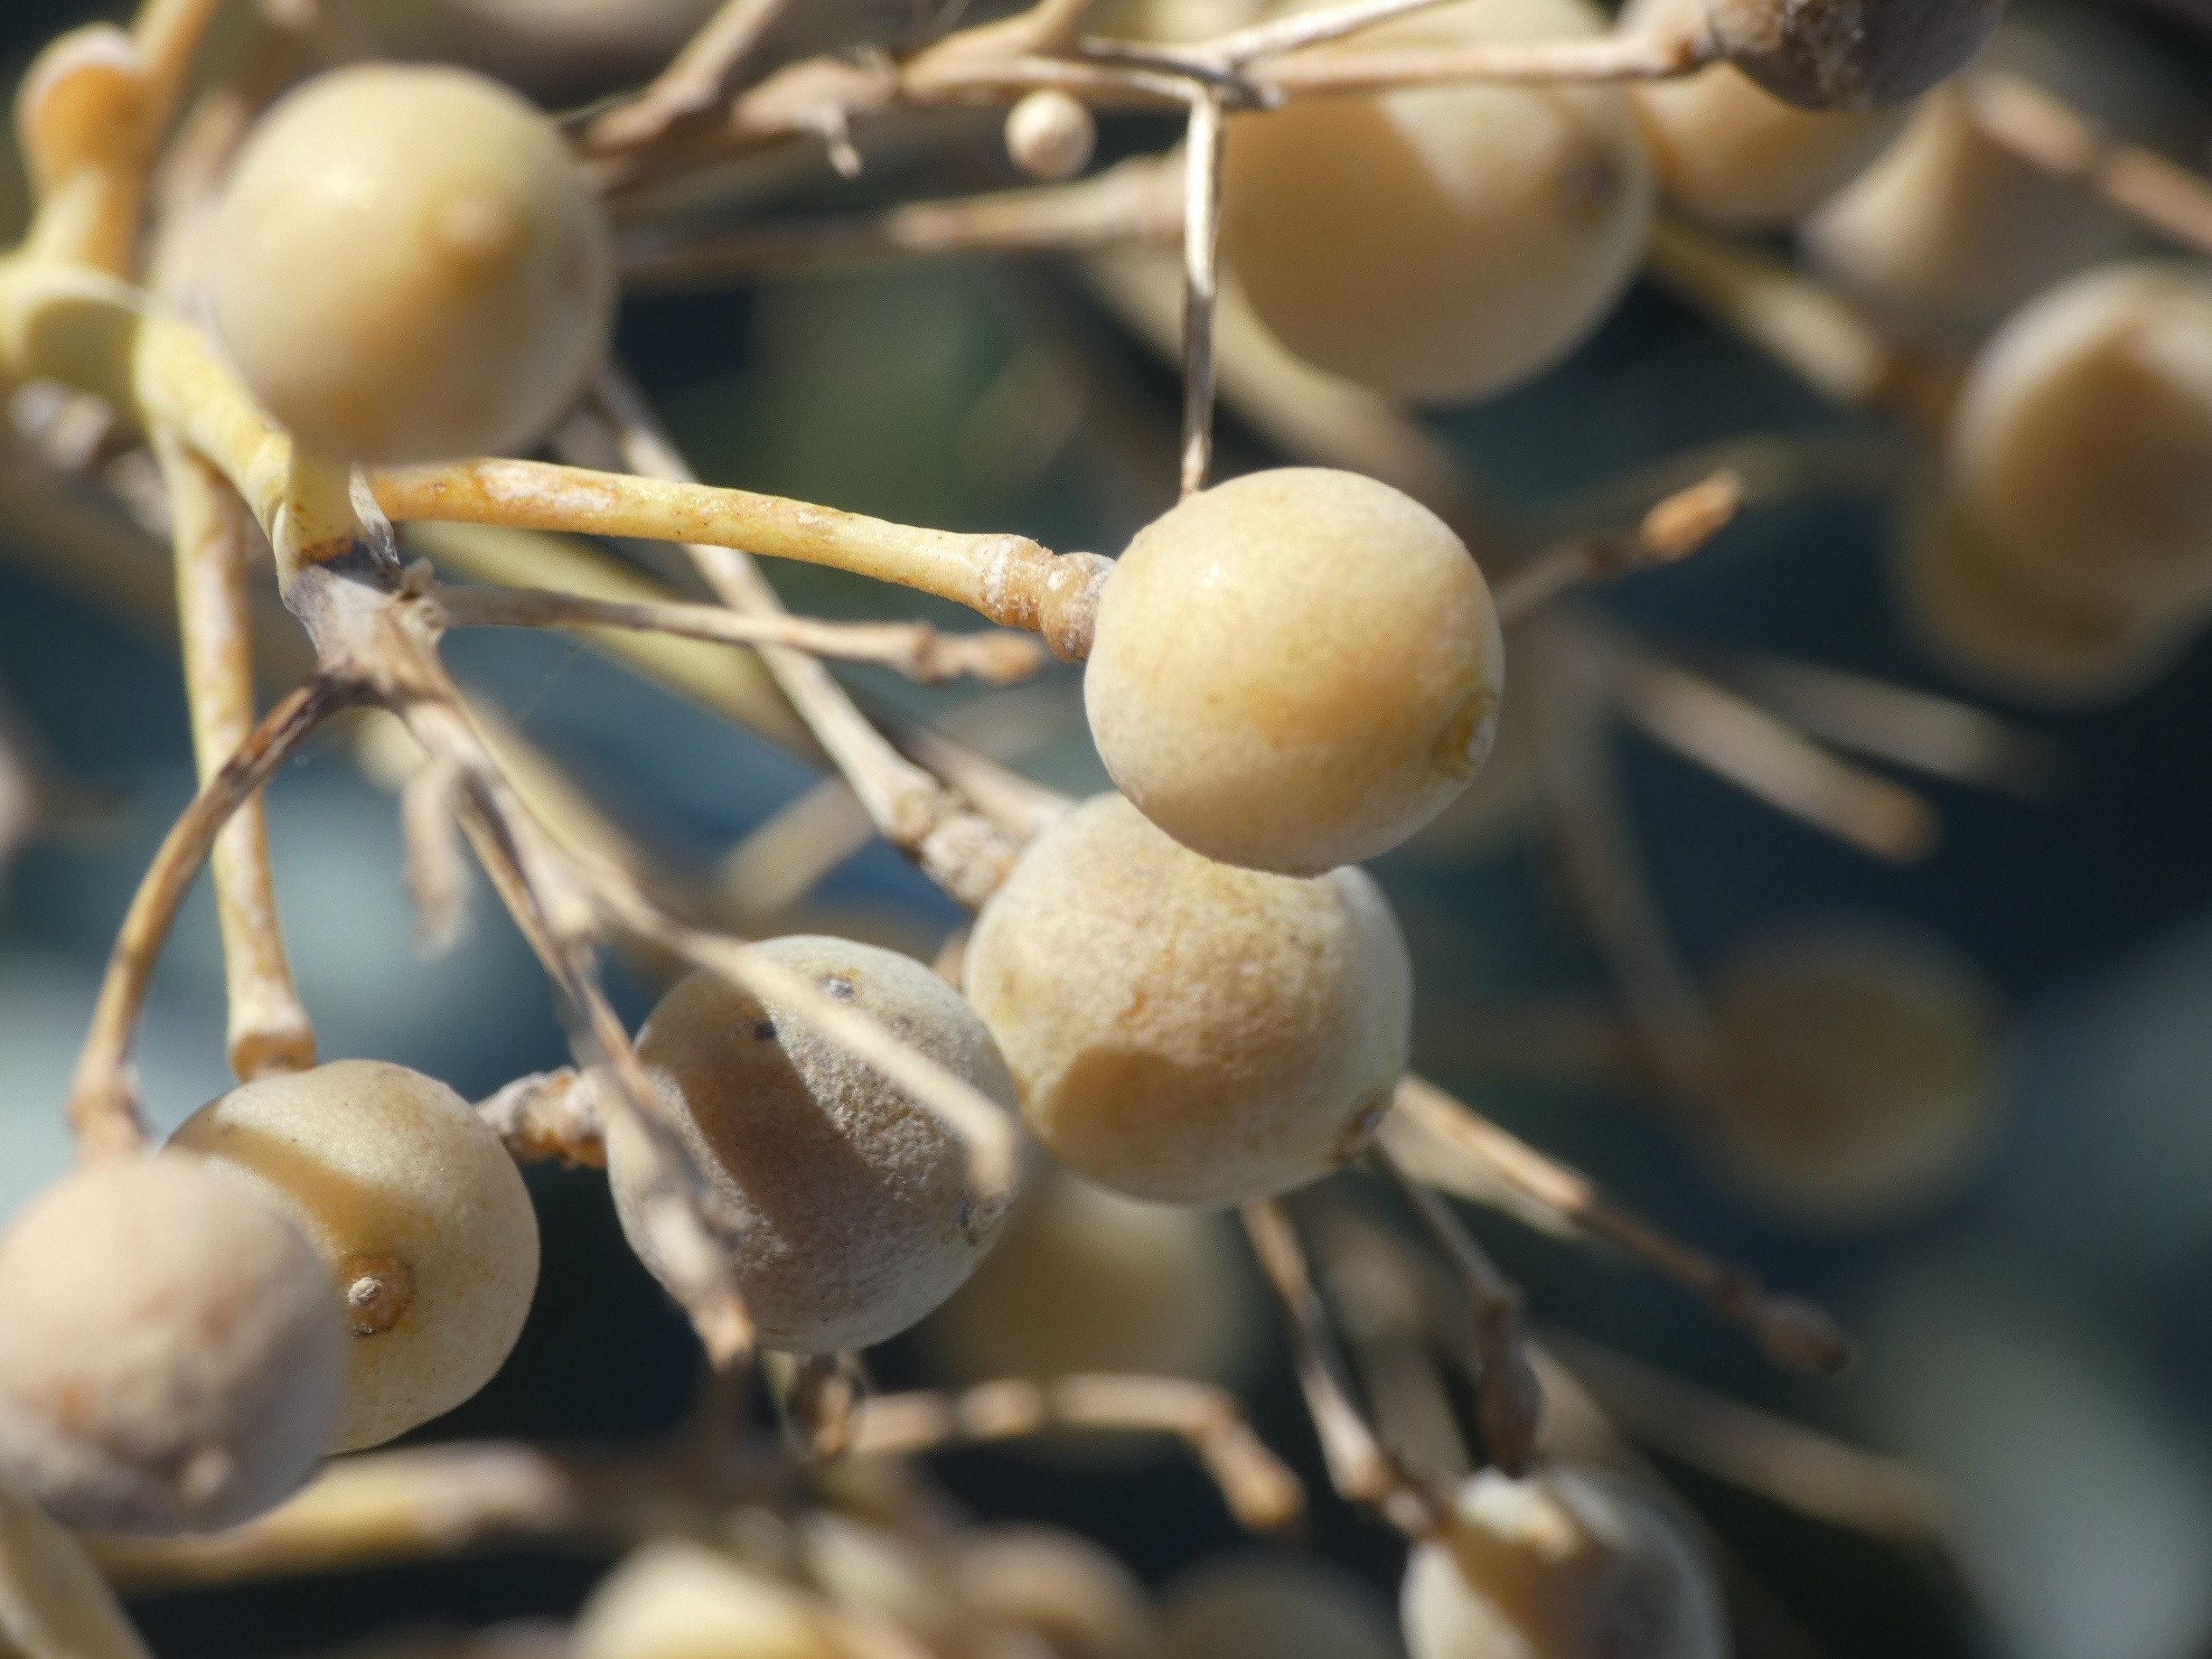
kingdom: Plantae
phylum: Tracheophyta
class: Magnoliopsida
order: Brassicales
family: Brassicaceae
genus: Crambe
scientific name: Crambe maritima
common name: Strandkål
